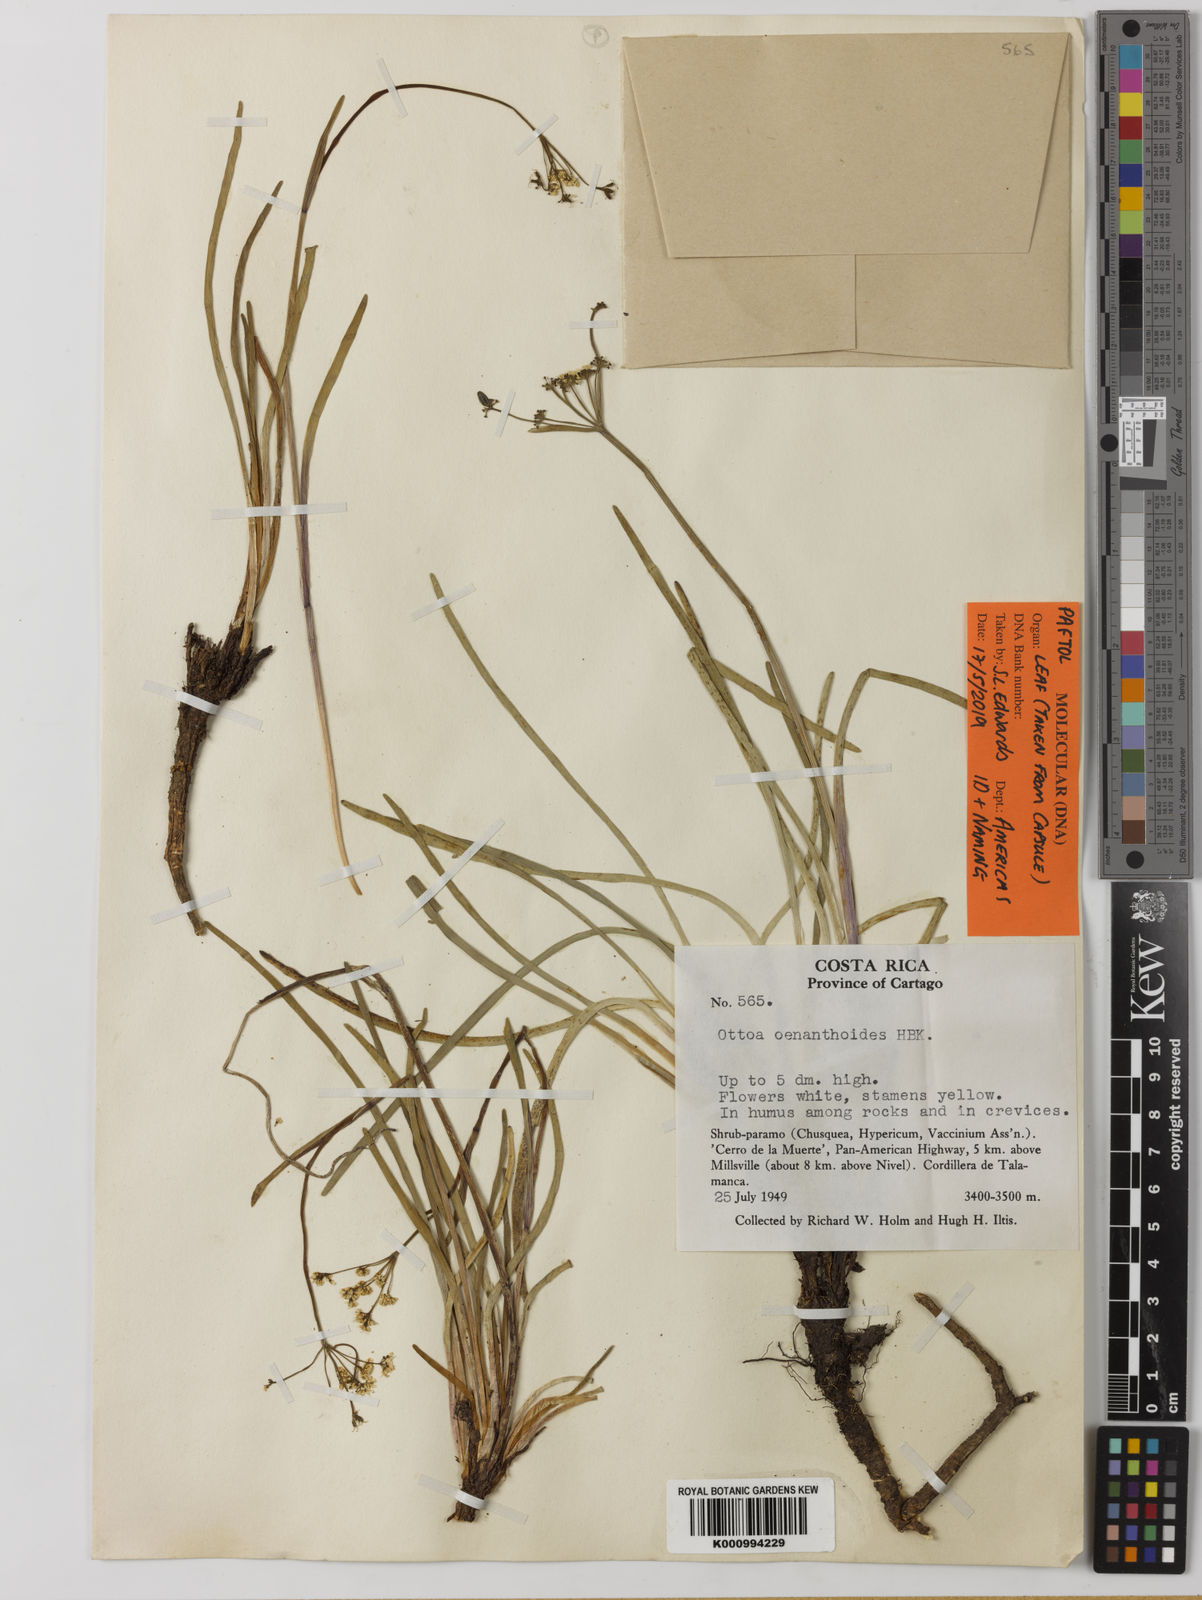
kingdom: Plantae
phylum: Tracheophyta
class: Magnoliopsida
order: Apiales
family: Apiaceae
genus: Ottoa
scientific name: Ottoa oenanthoides
